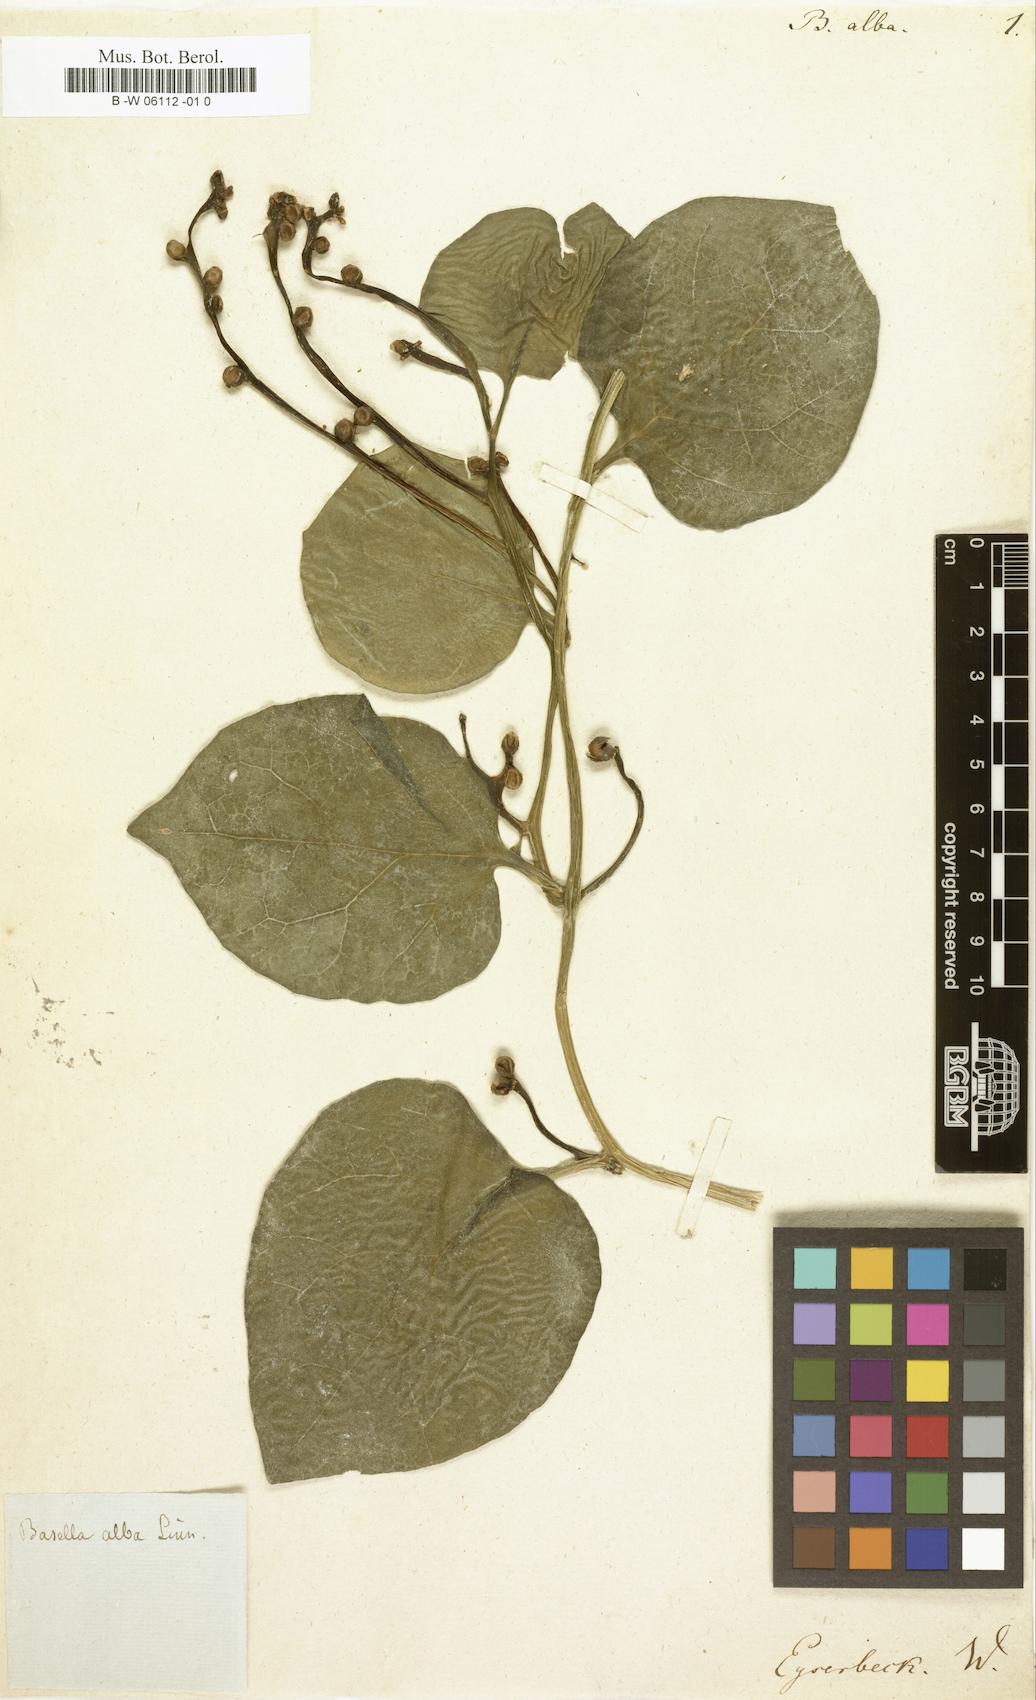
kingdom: Plantae
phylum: Tracheophyta
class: Magnoliopsida
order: Caryophyllales
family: Basellaceae
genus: Basella
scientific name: Basella alba
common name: Indian spinach
